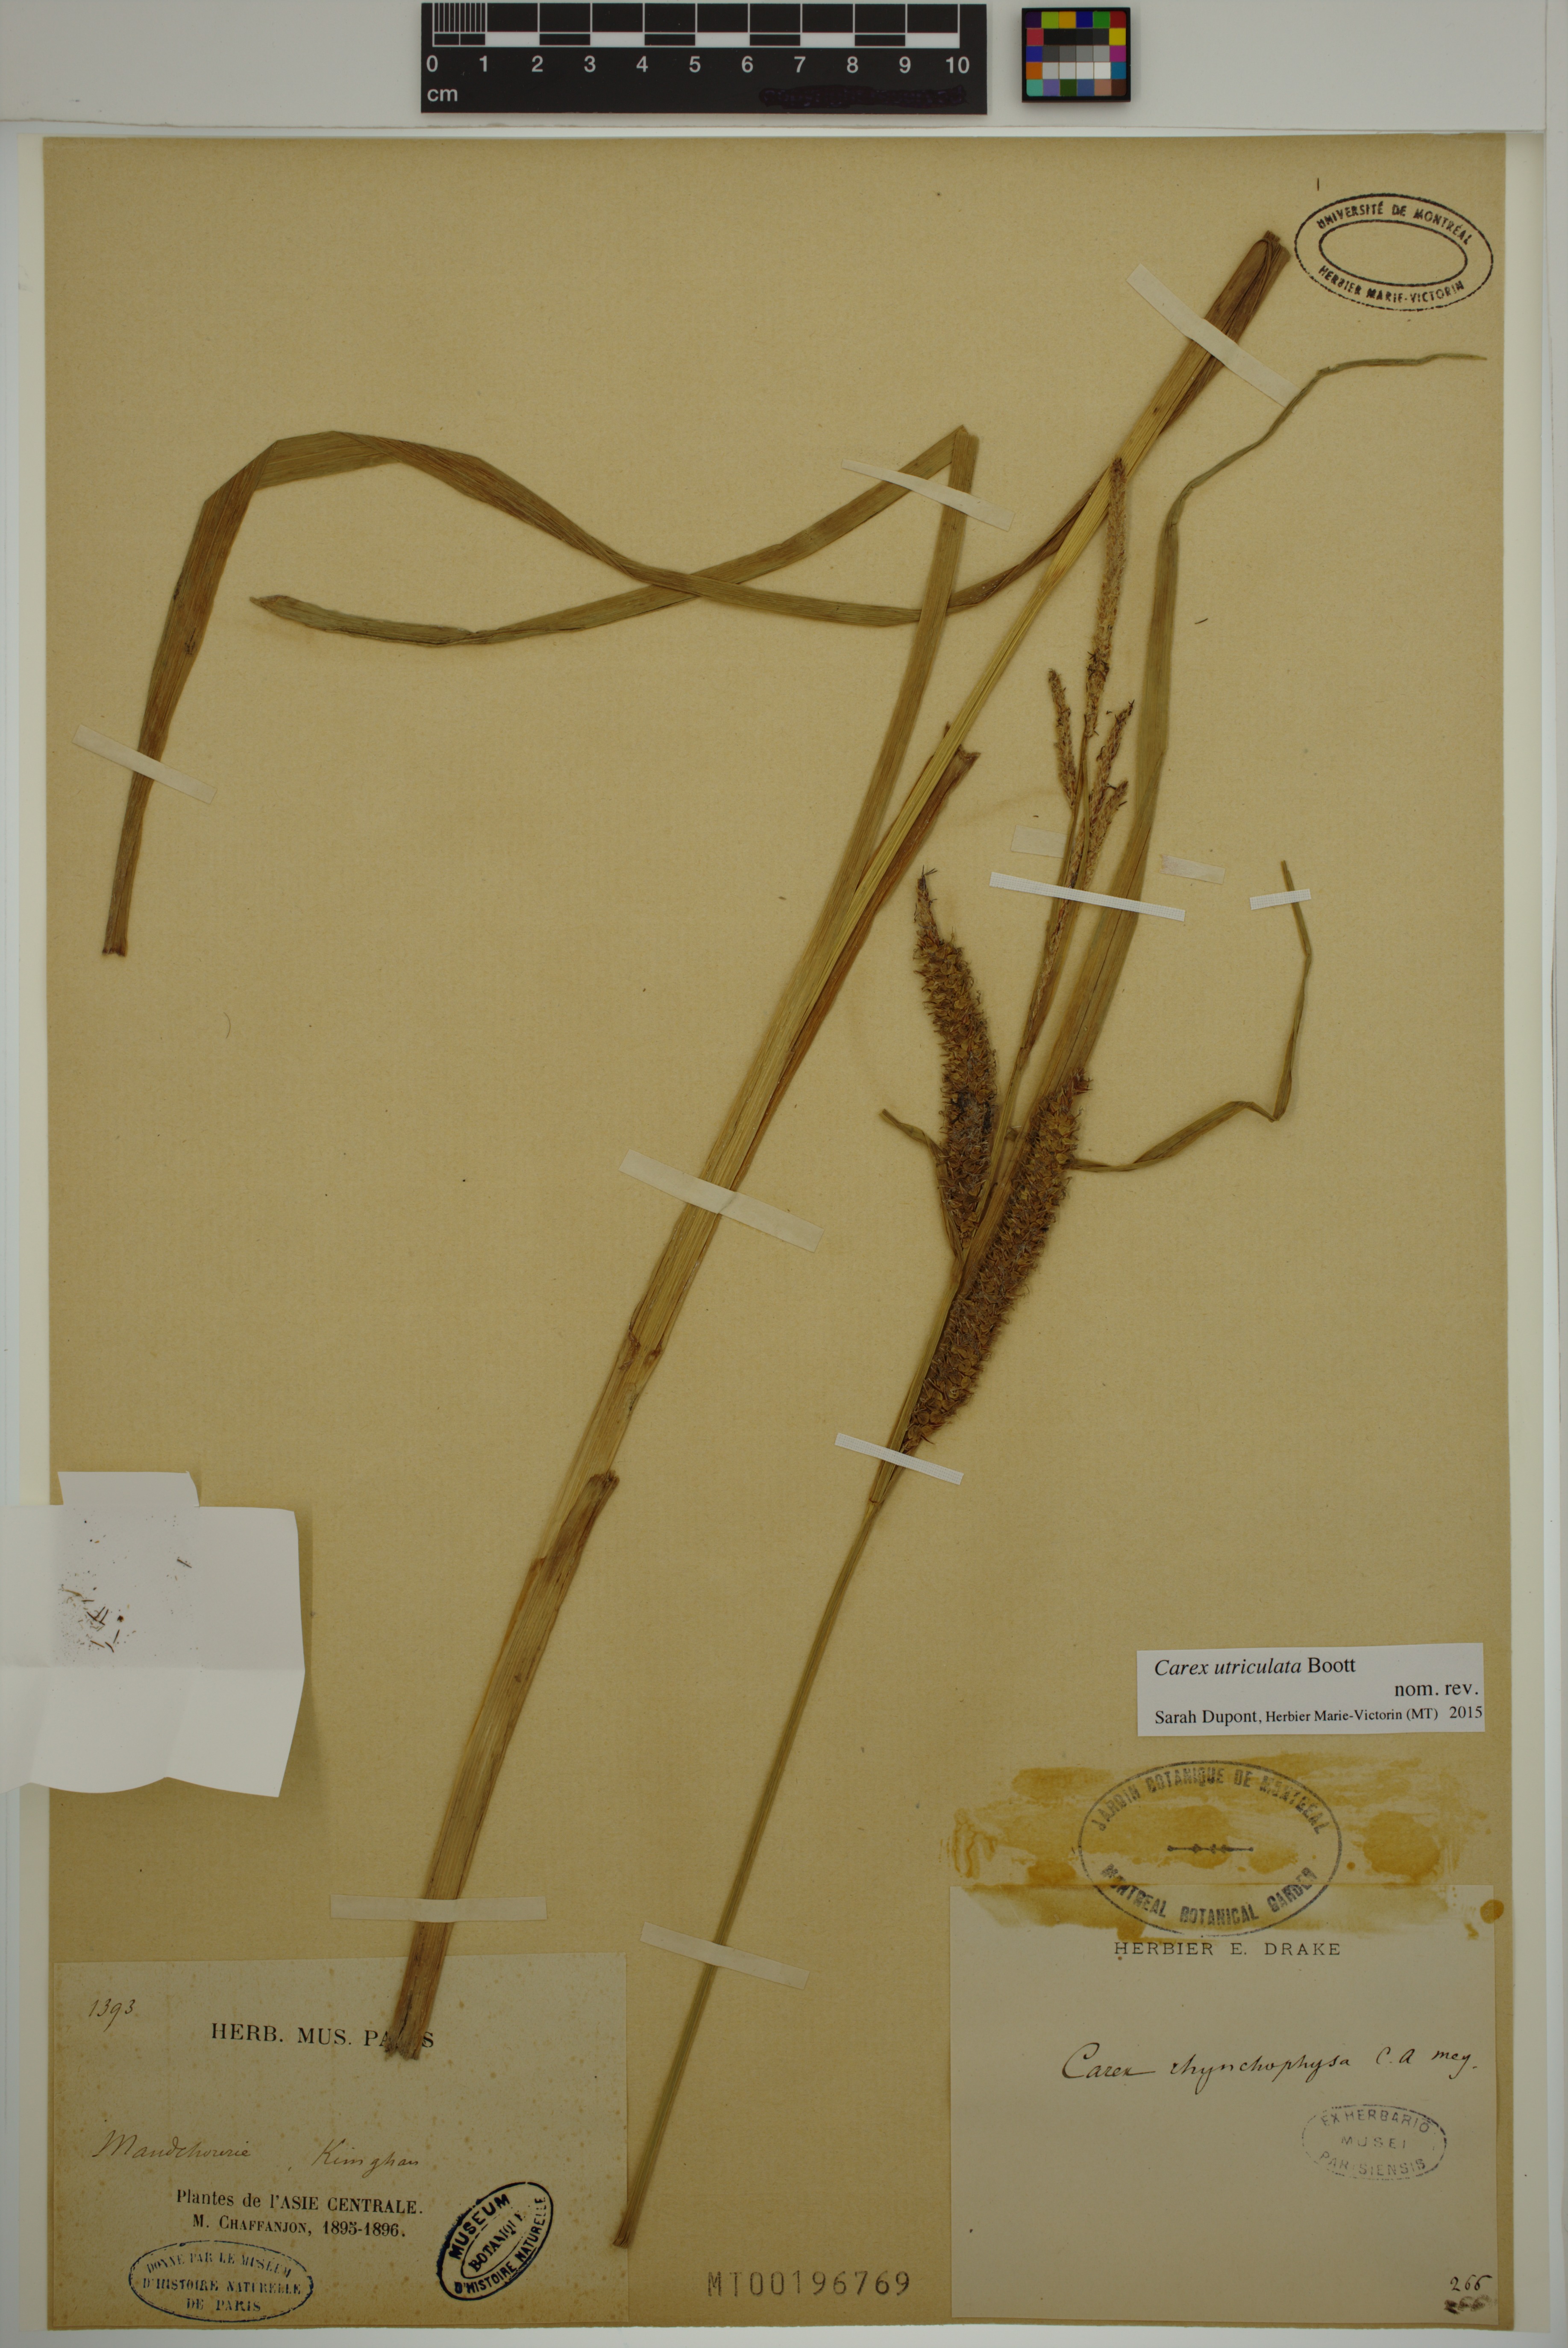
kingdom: Plantae
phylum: Tracheophyta
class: Liliopsida
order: Poales
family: Cyperaceae
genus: Carex
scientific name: Carex utriculata
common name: Beaked sedge
